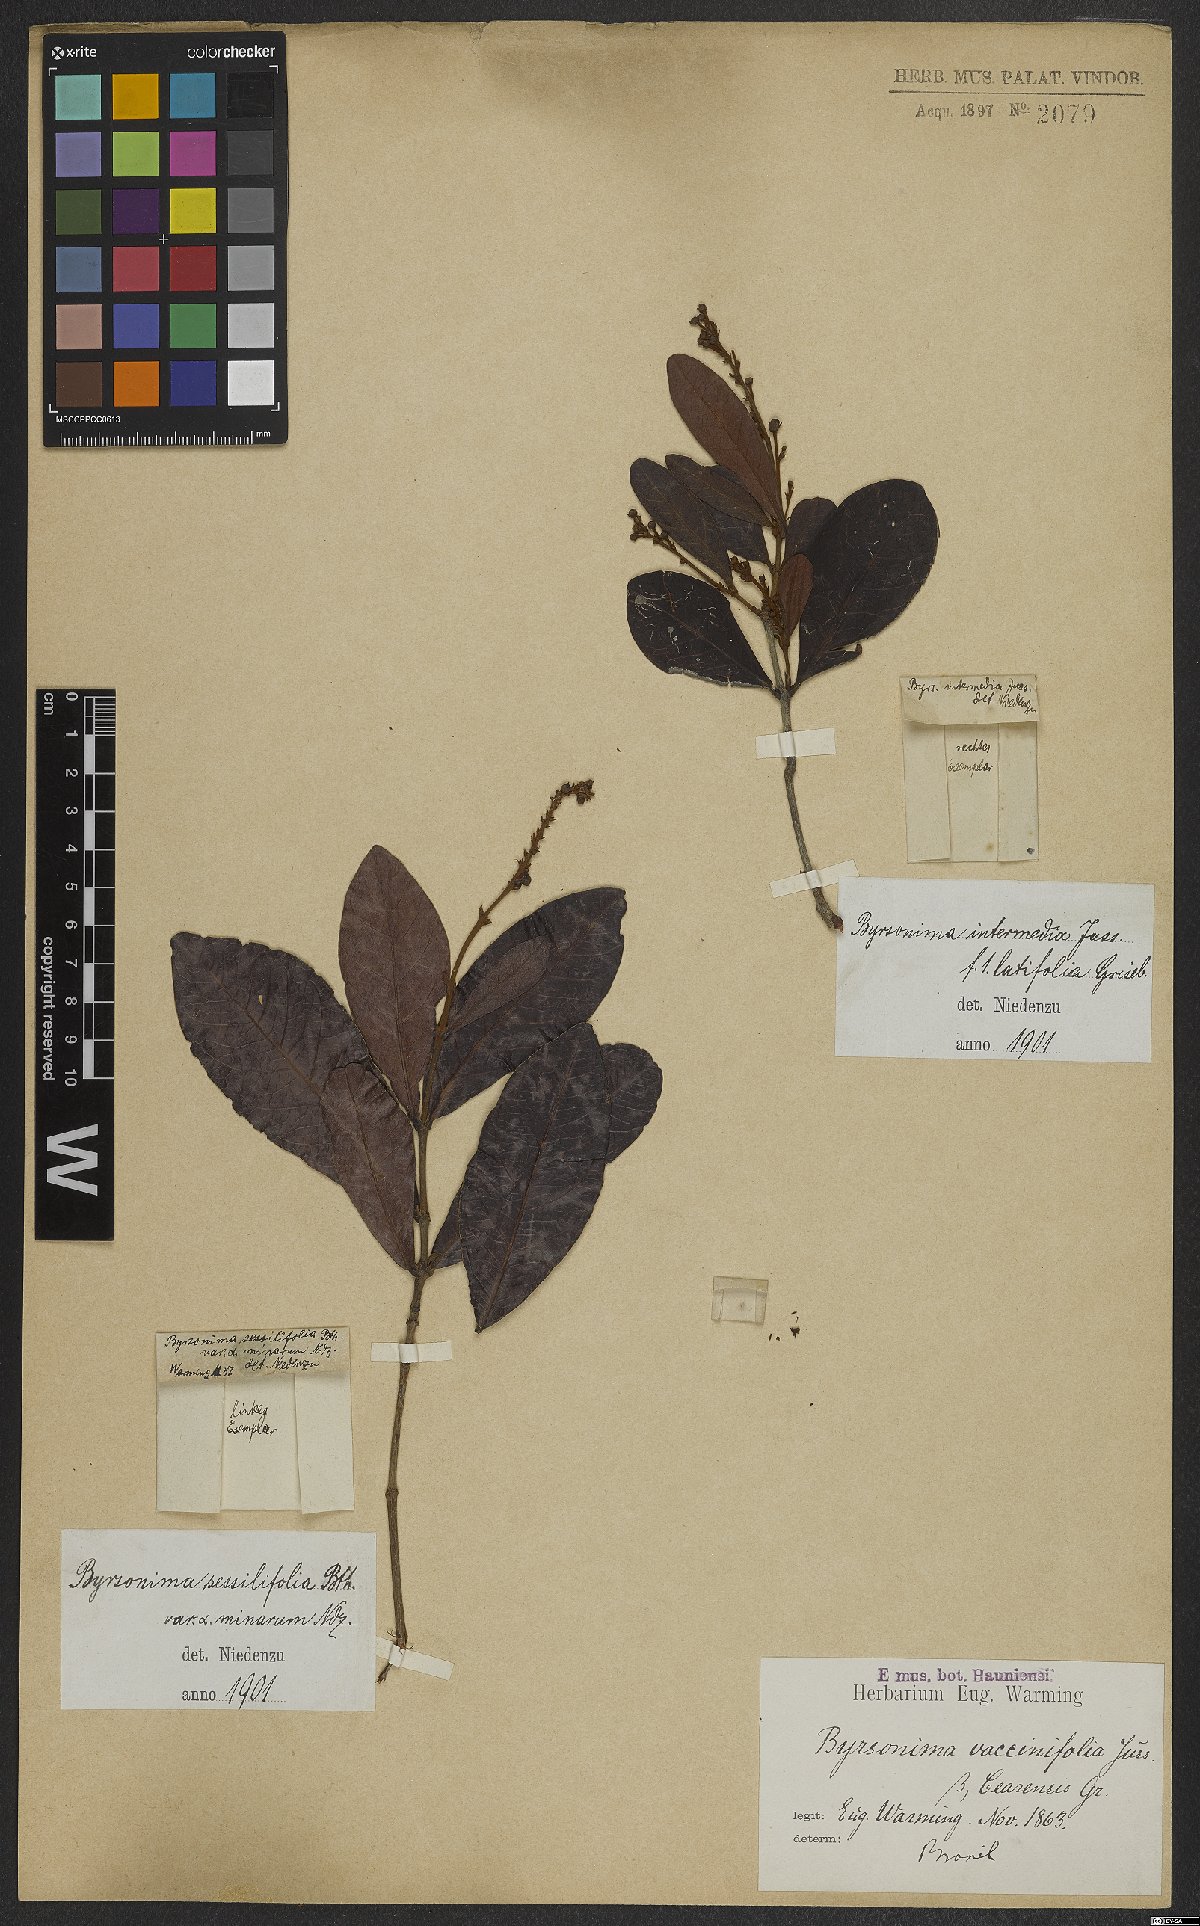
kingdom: Plantae
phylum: Tracheophyta
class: Magnoliopsida
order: Malpighiales
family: Malpighiaceae
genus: Byrsonima
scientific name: Byrsonima vacciniifolia
